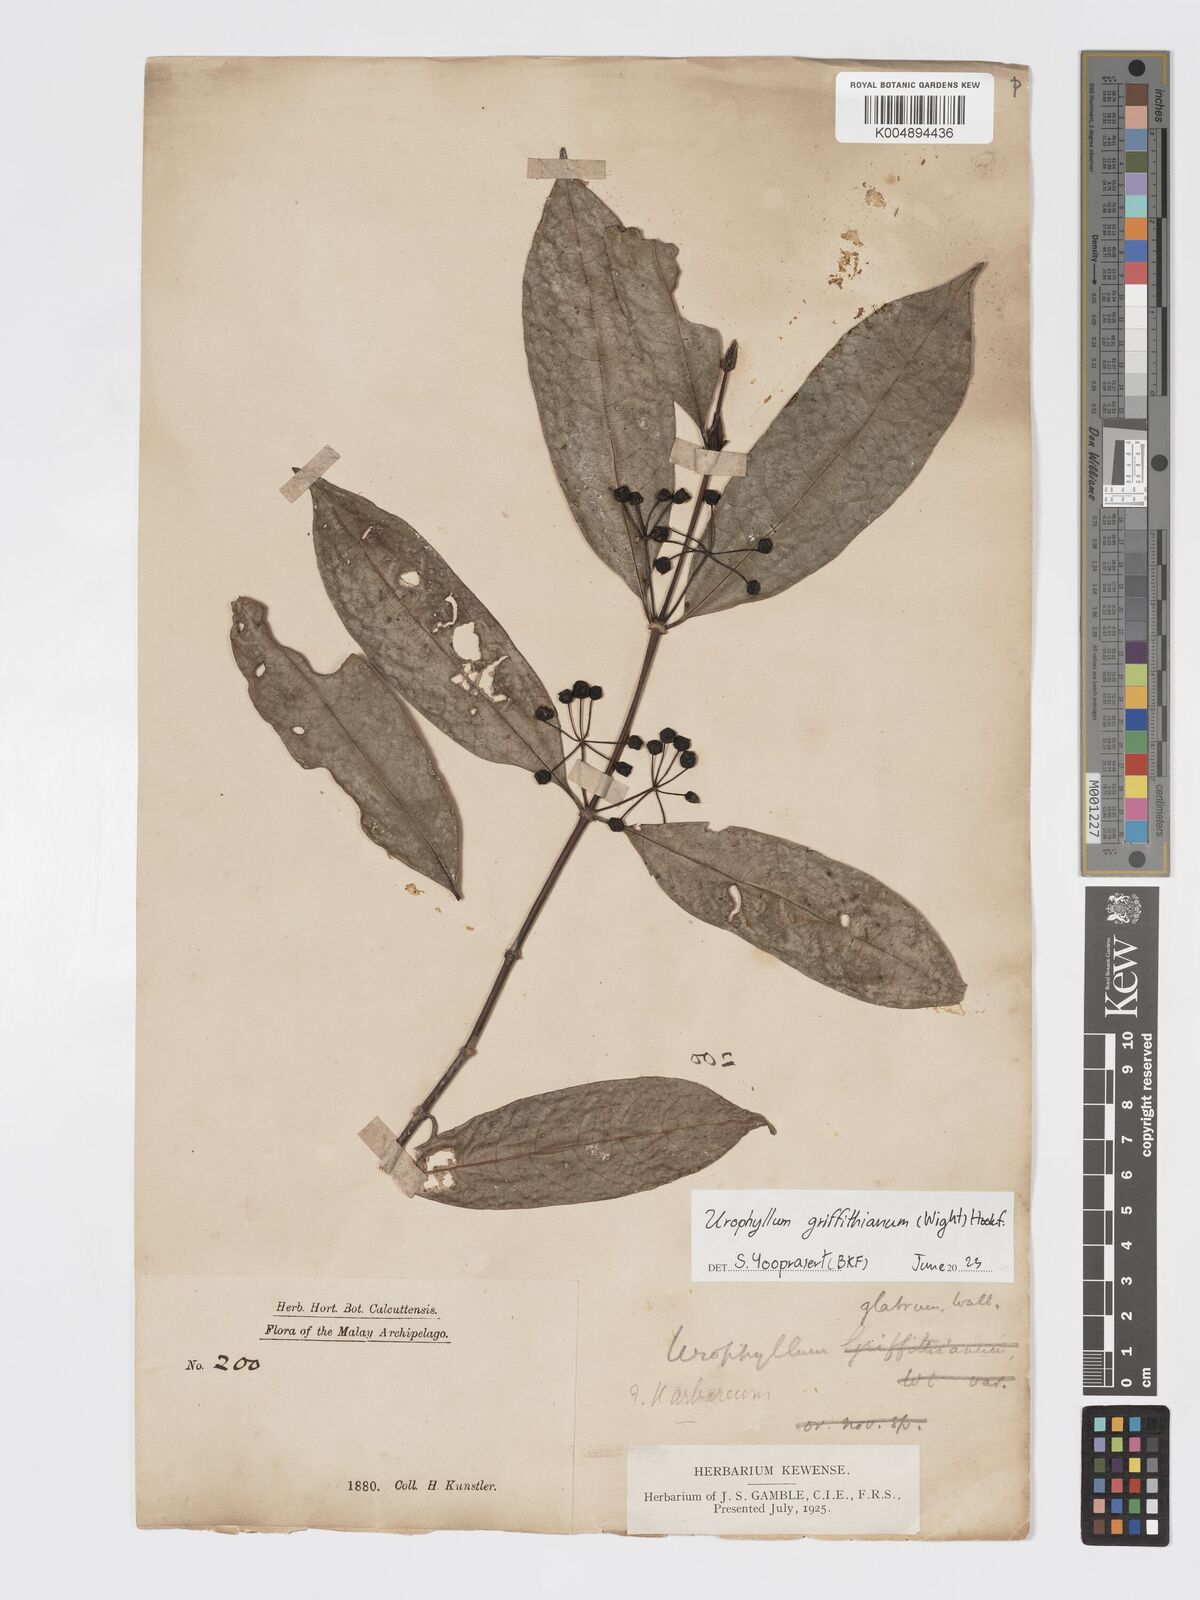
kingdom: Plantae
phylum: Tracheophyta
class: Magnoliopsida
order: Gentianales
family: Rubiaceae
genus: Urophyllum
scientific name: Urophyllum griffithianum
